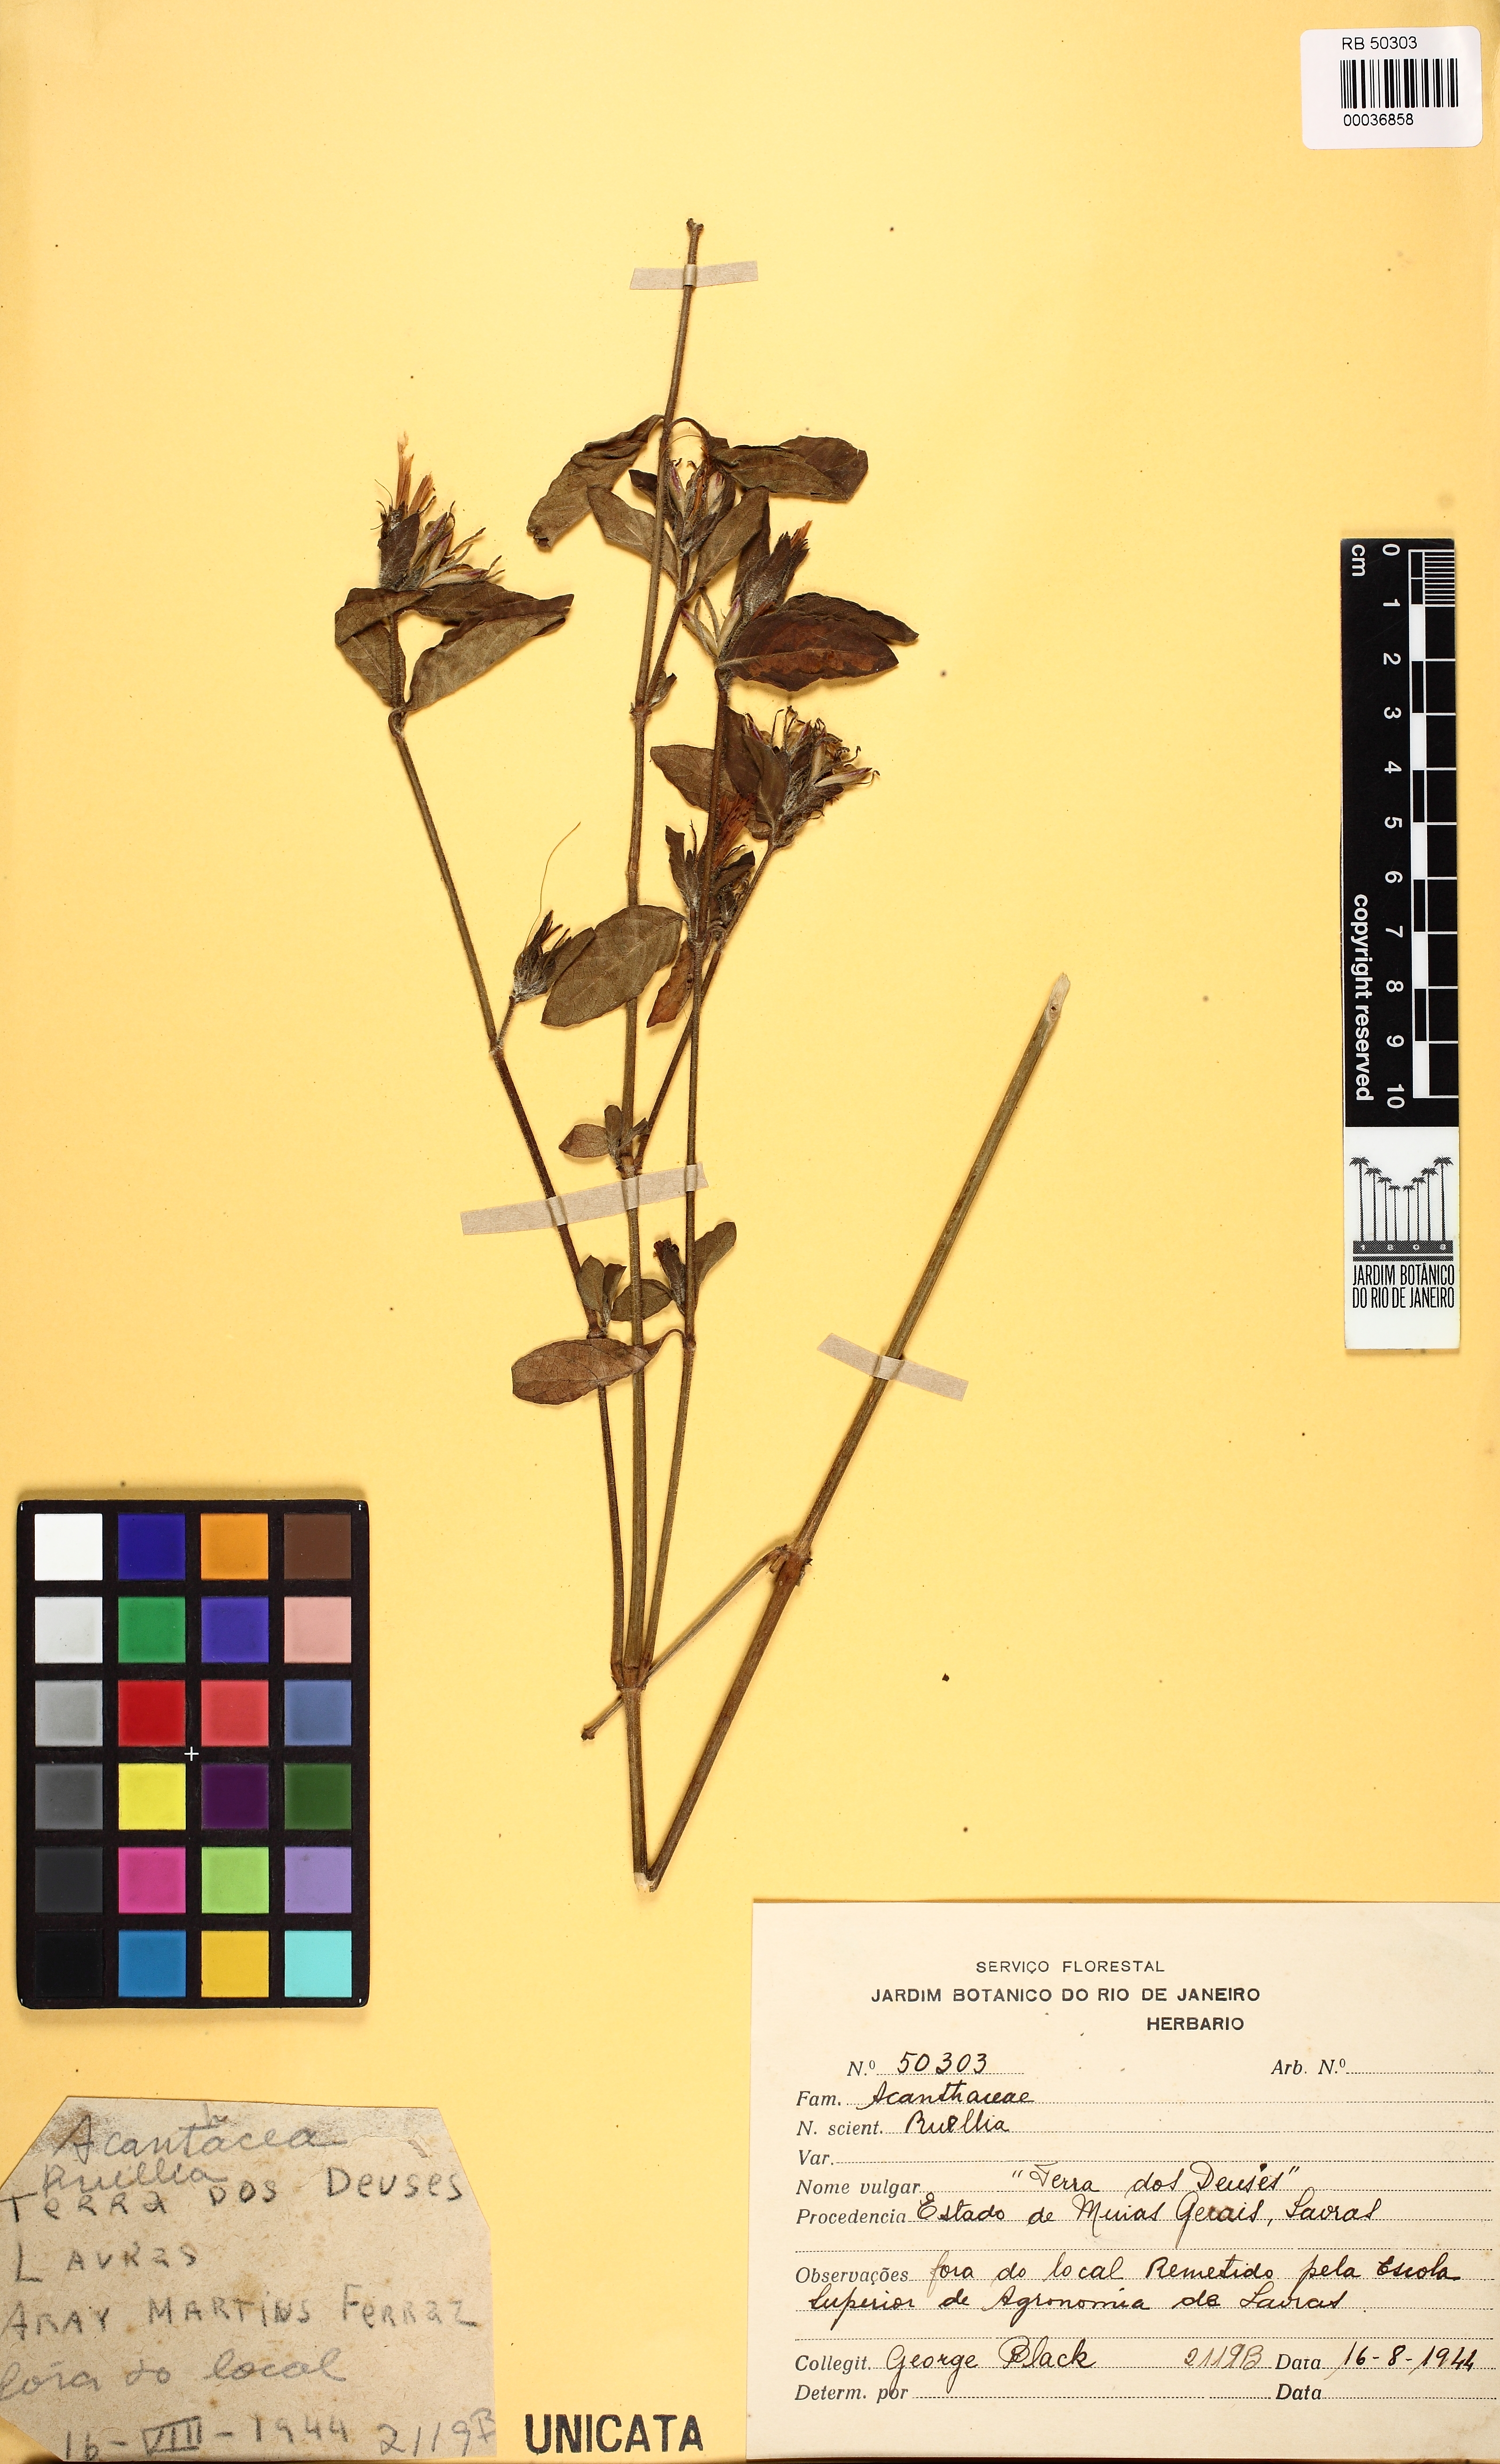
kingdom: Plantae
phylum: Tracheophyta
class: Magnoliopsida
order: Lamiales
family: Acanthaceae
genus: Ruellia
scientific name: Ruellia
